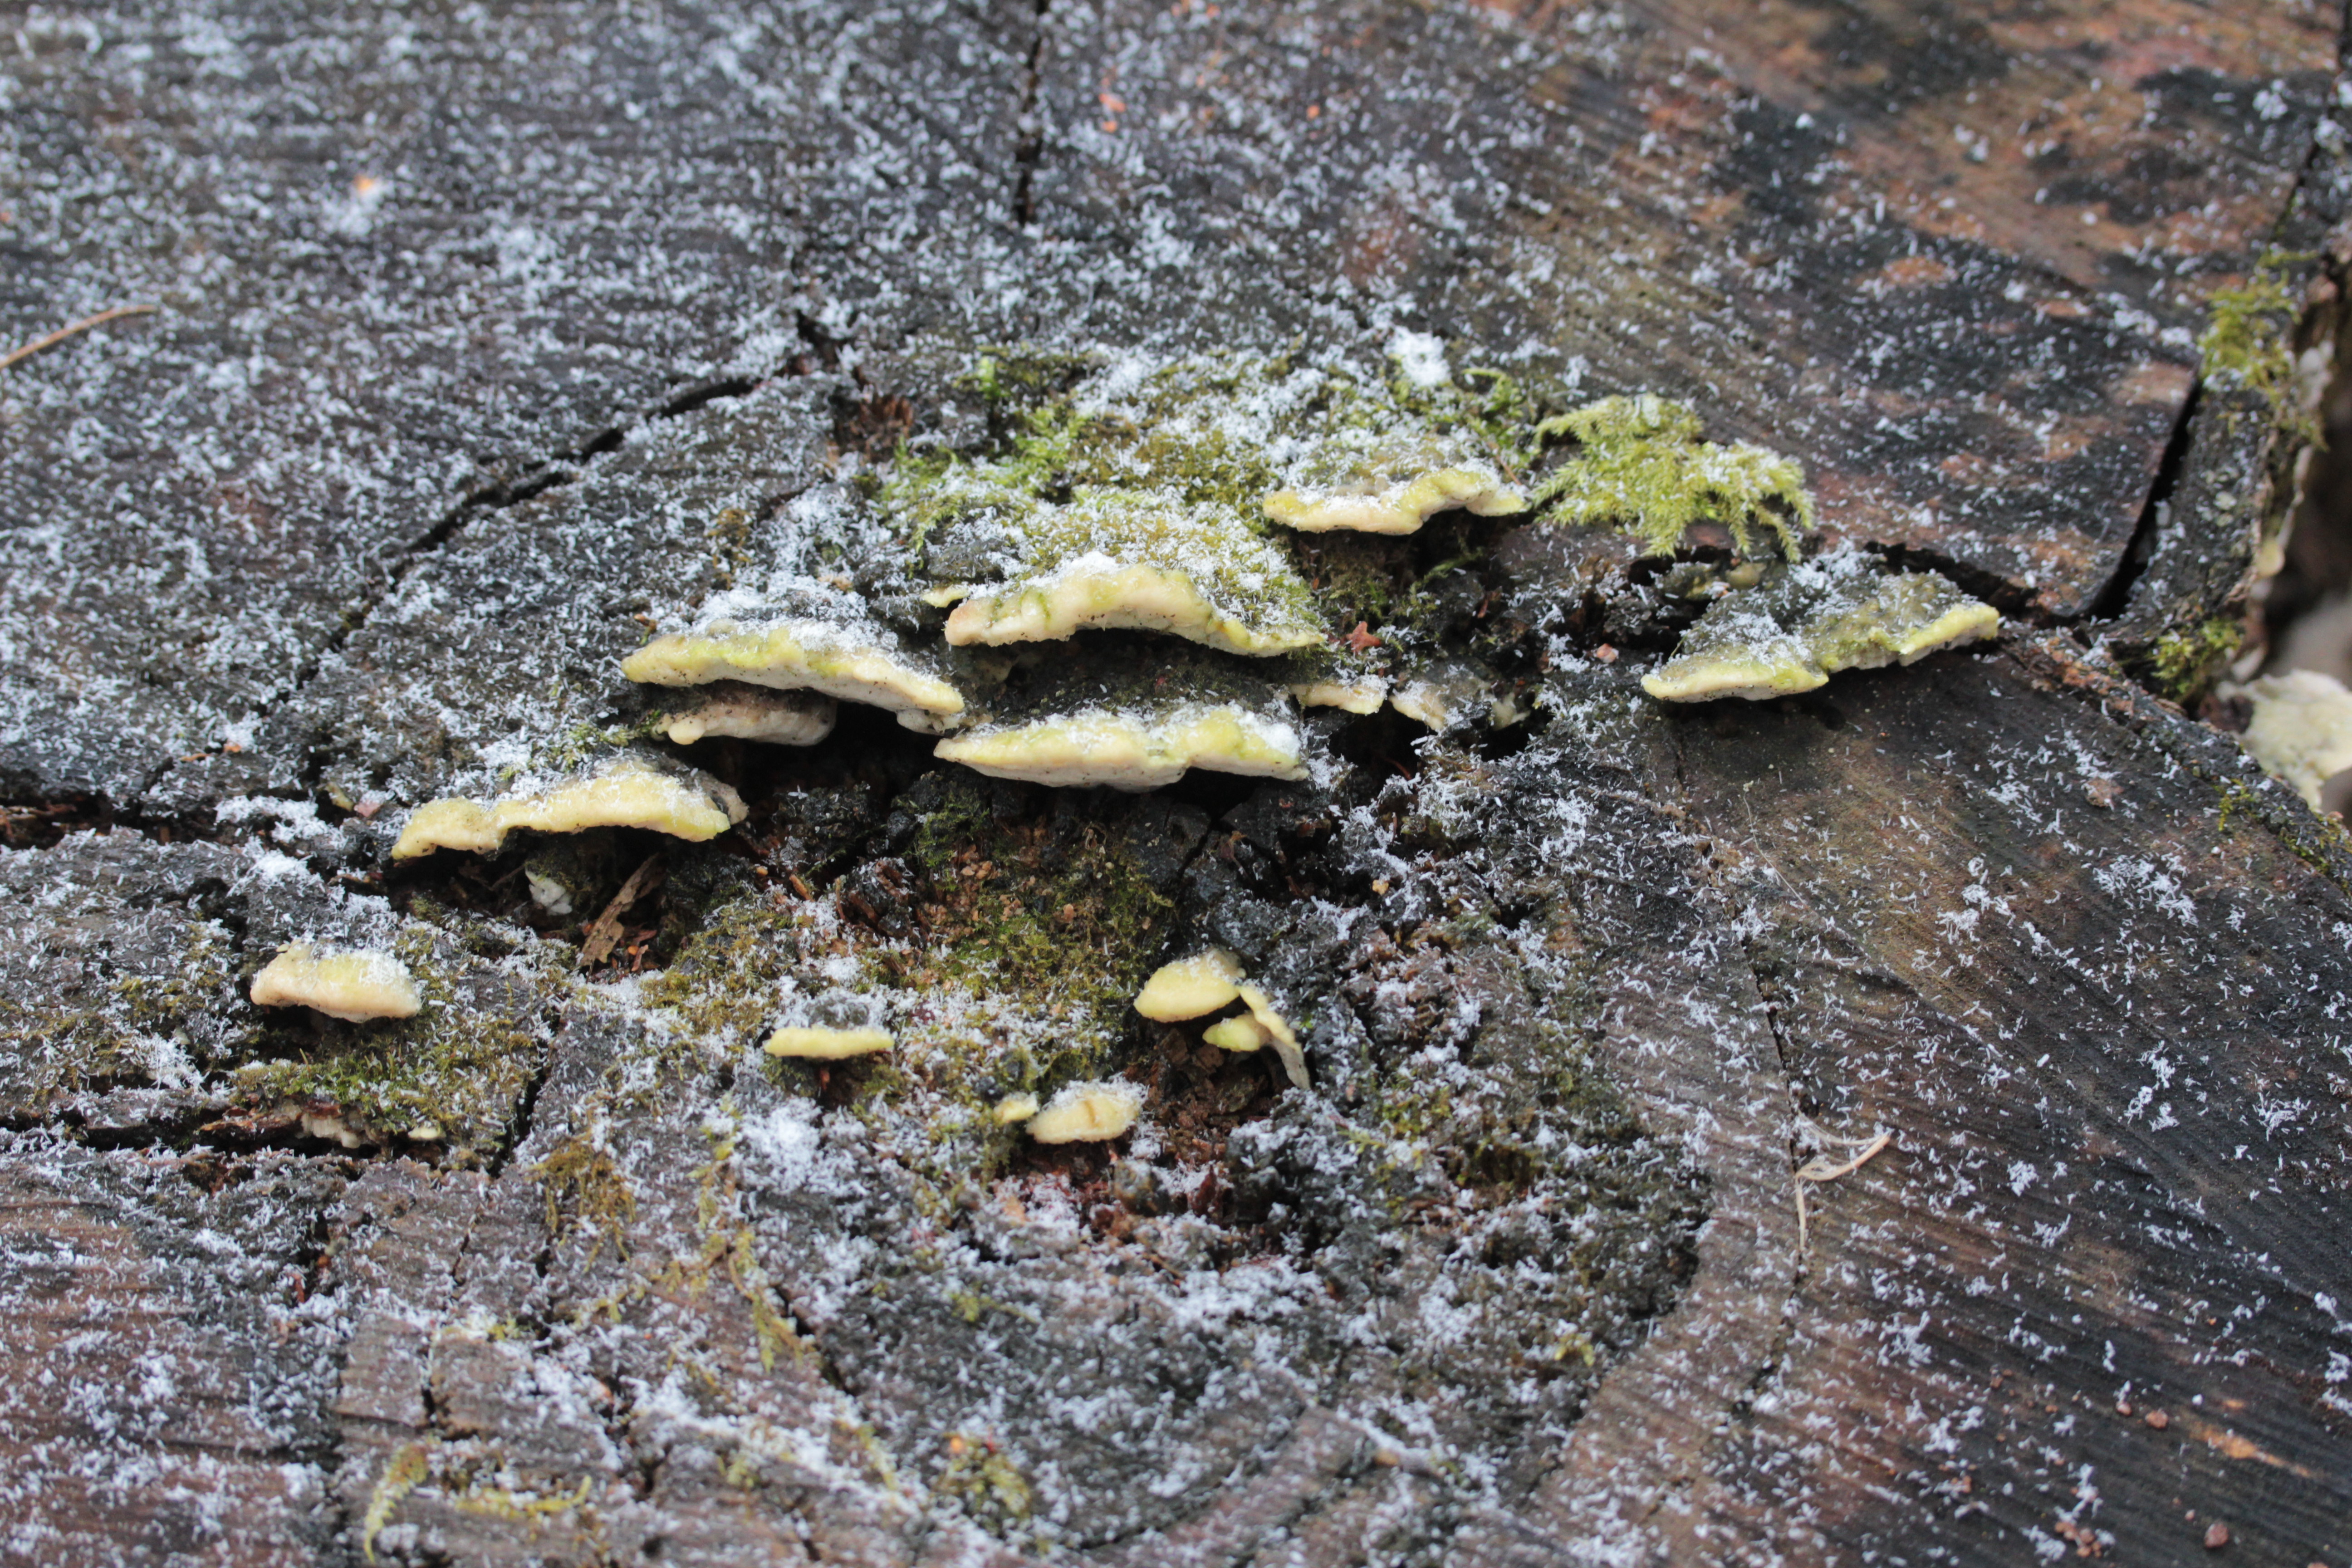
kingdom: Fungi
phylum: Basidiomycota
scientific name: Basidiomycota
